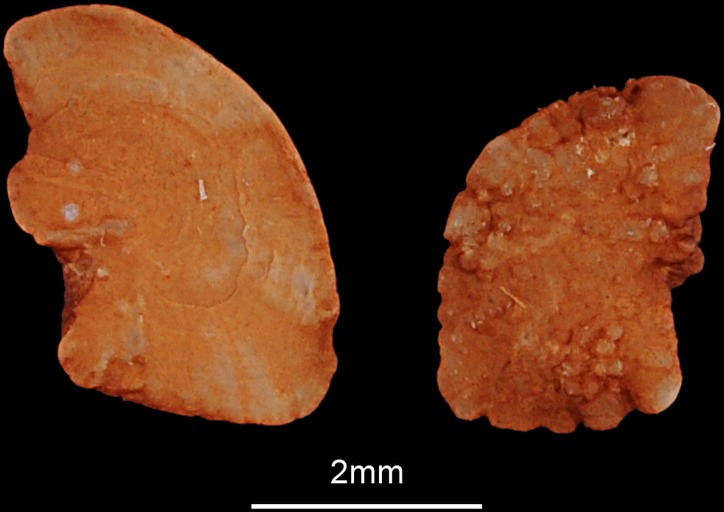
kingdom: Animalia
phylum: Chordata
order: Siluriformes
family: Claroteidae
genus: Chrysichthys
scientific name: Chrysichthys auratus
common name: Golden nile catfish
